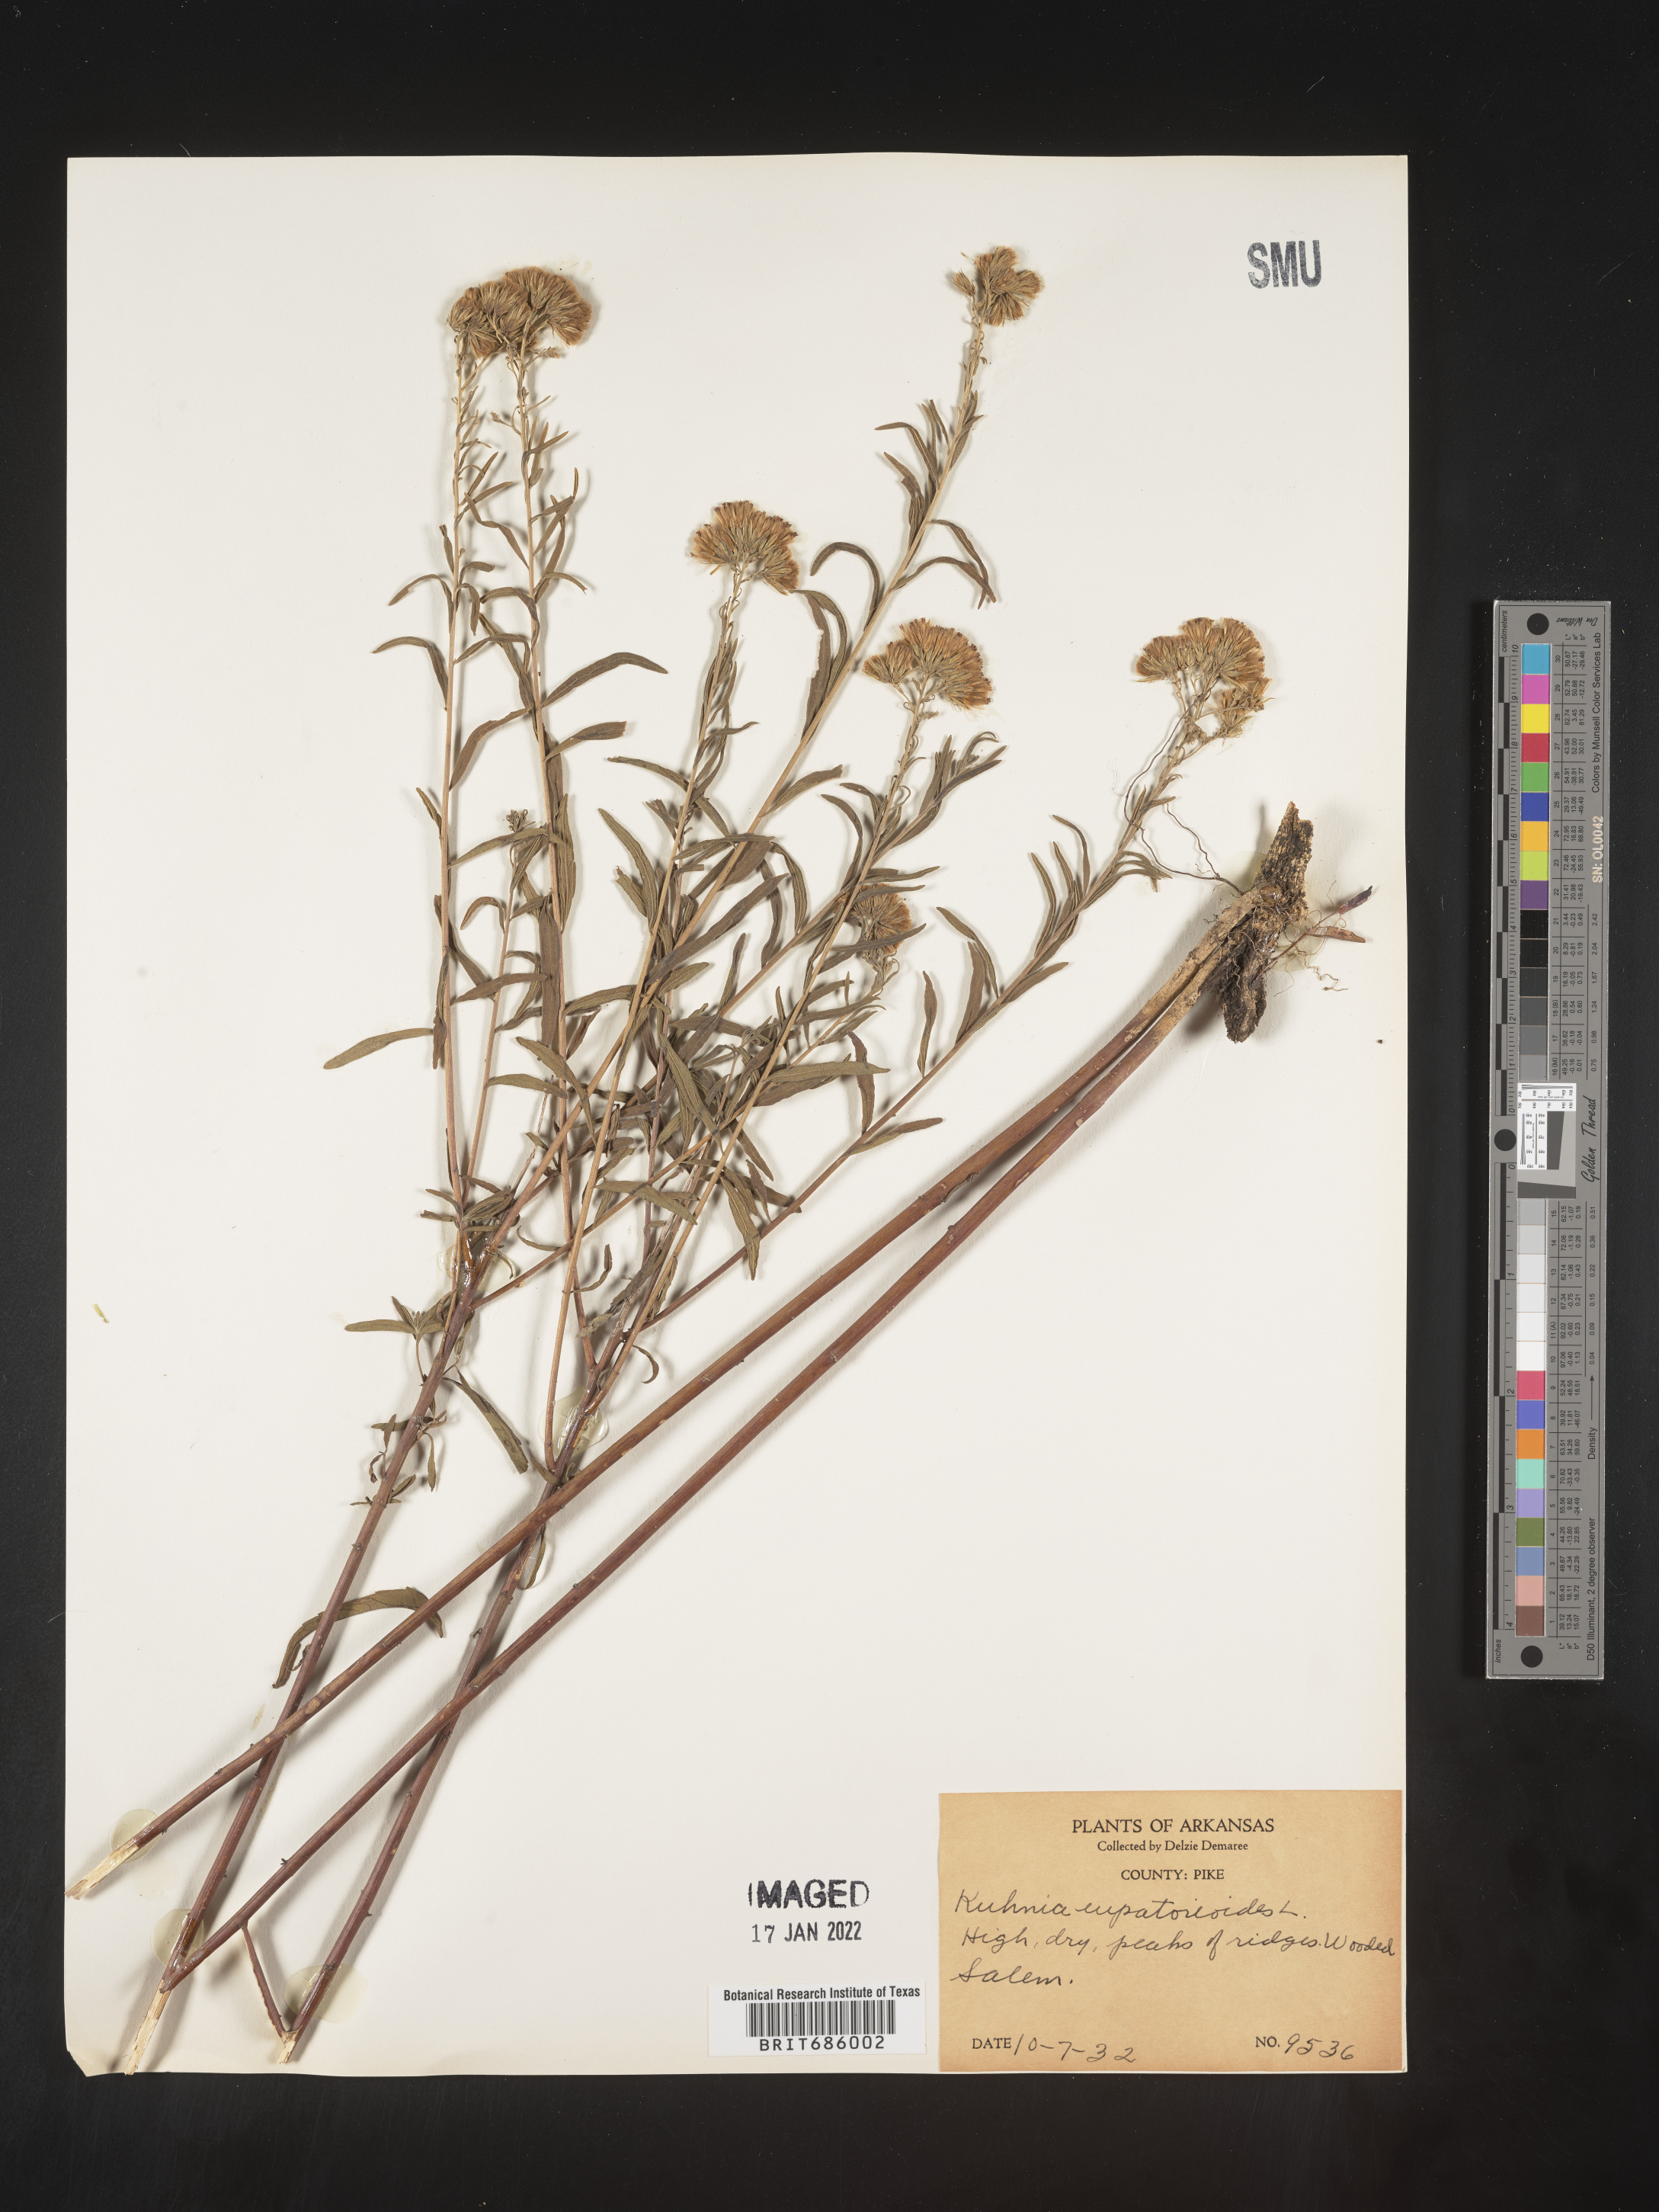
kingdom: Plantae
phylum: Tracheophyta
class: Magnoliopsida
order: Asterales
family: Asteraceae
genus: Brickellia
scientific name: Brickellia eupatorioides
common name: False boneset
